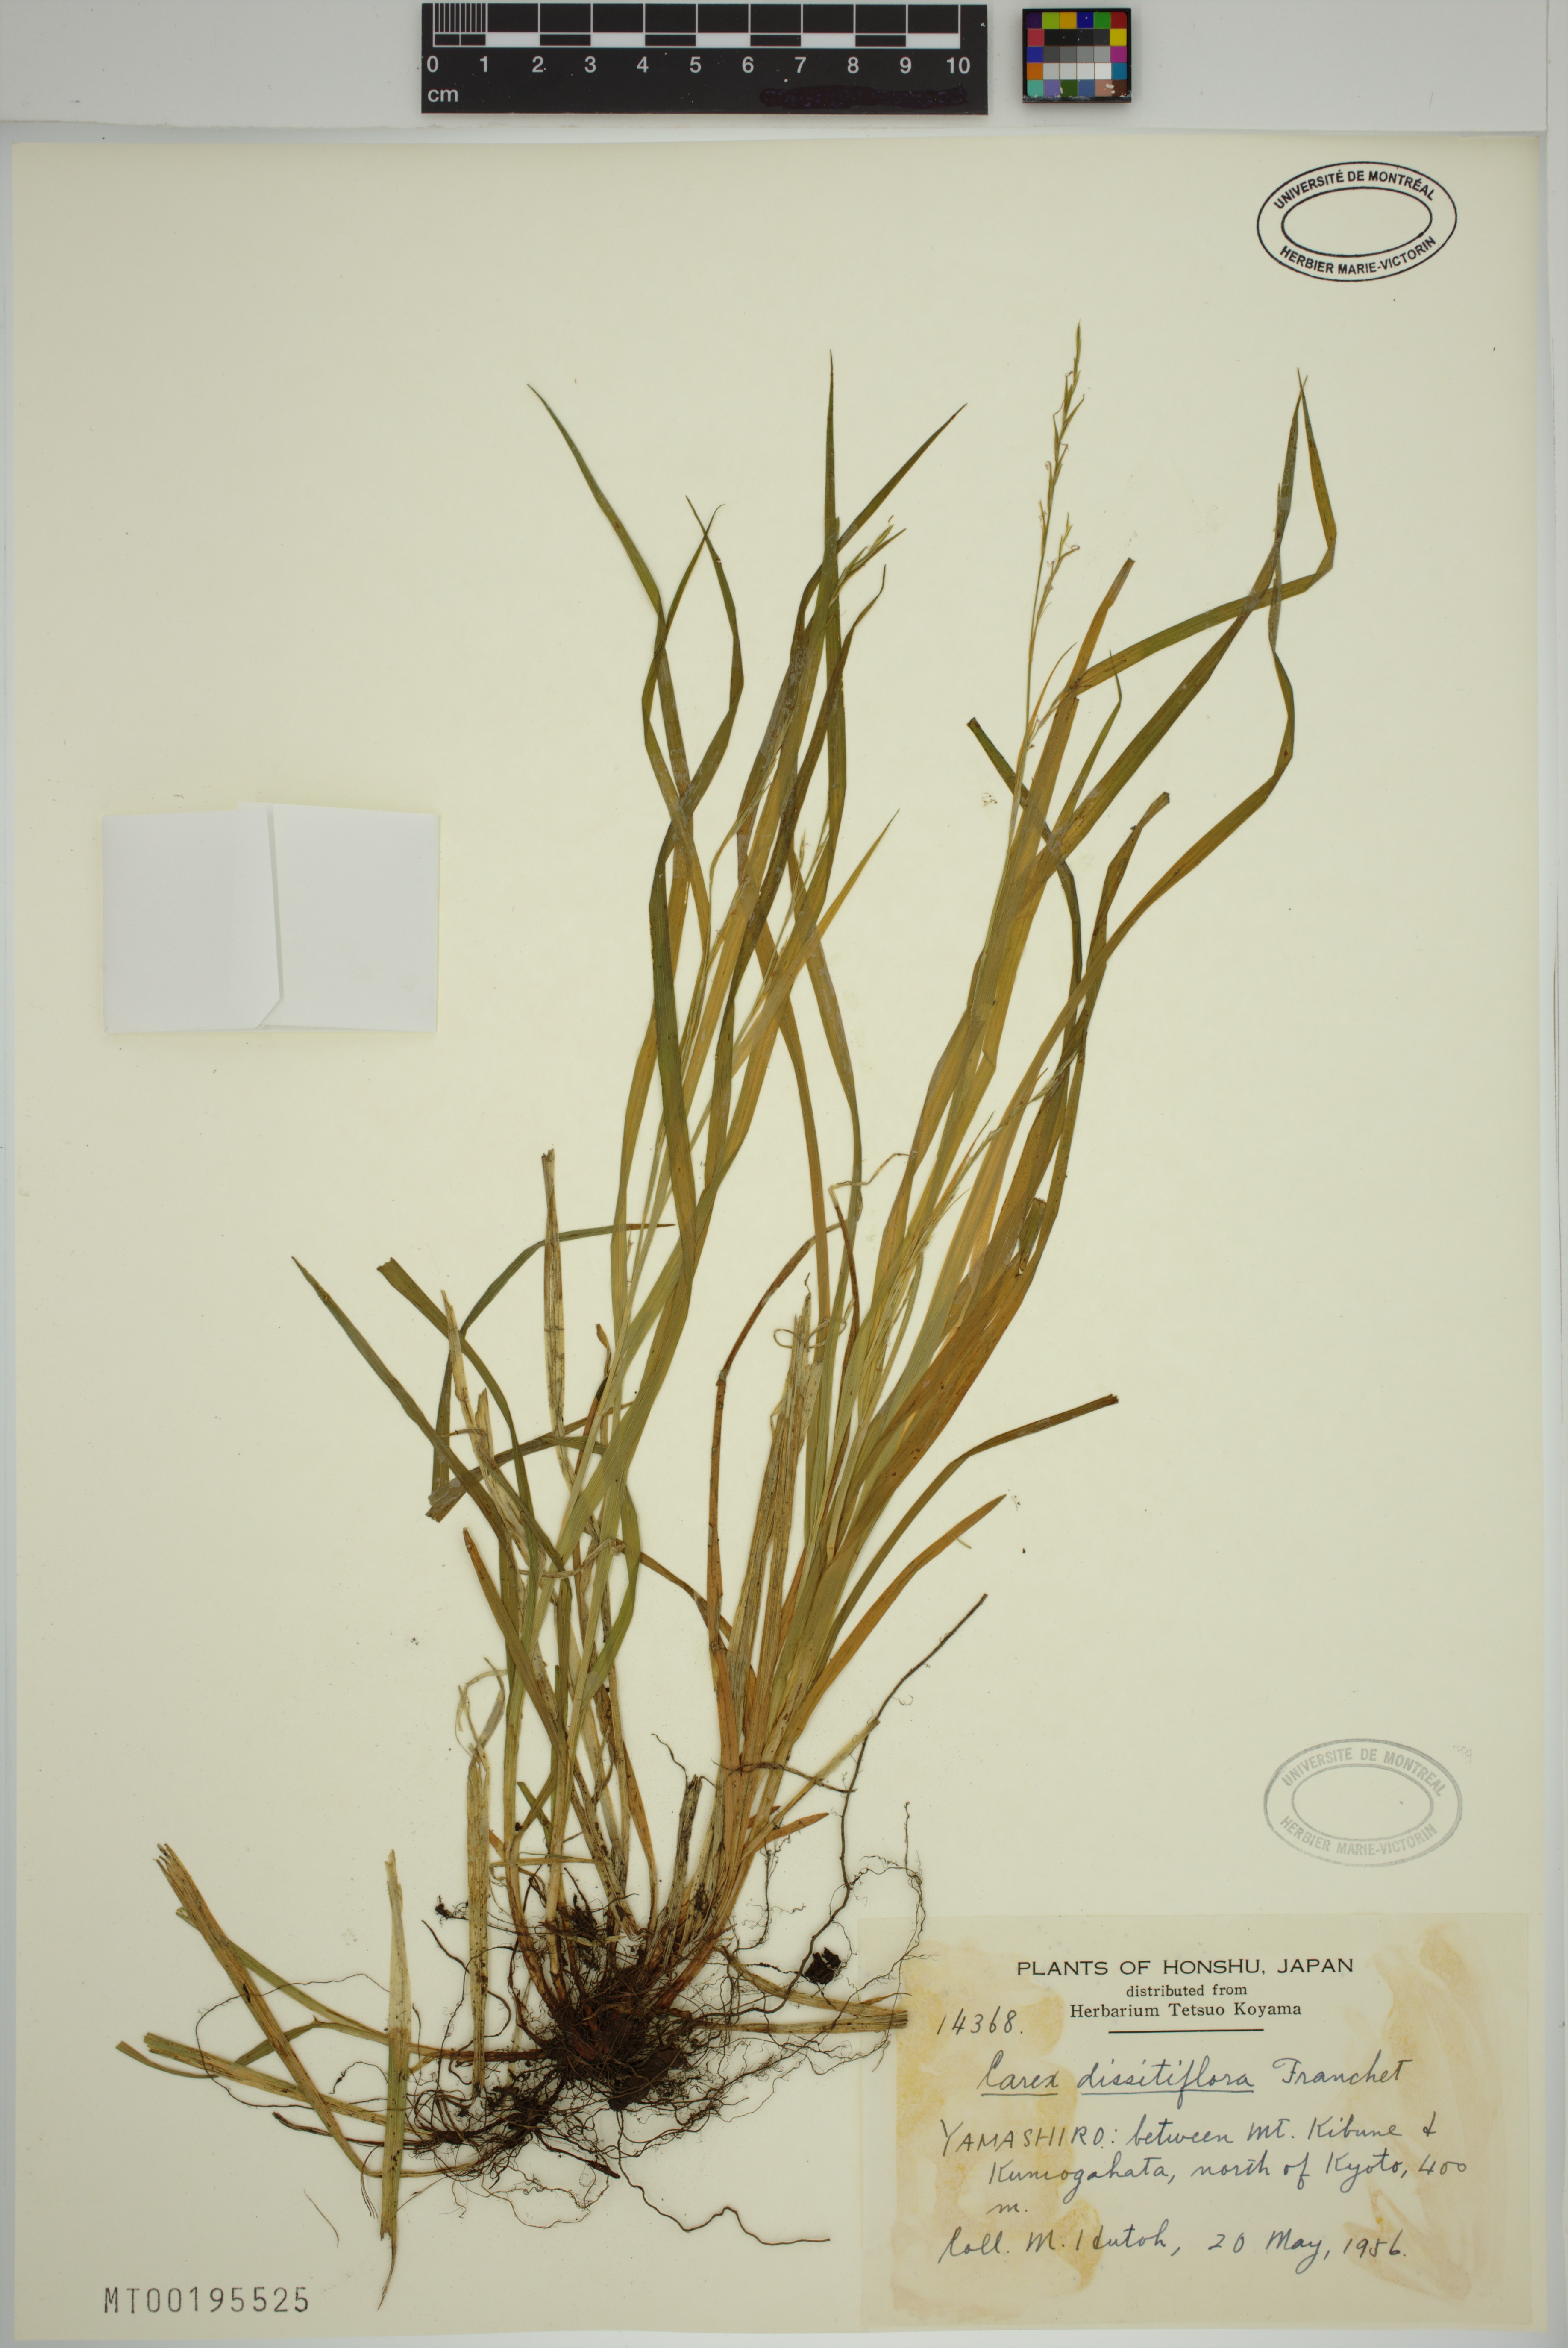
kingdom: Plantae
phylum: Tracheophyta
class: Liliopsida
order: Poales
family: Cyperaceae
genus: Carex
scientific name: Carex dissitiflora
